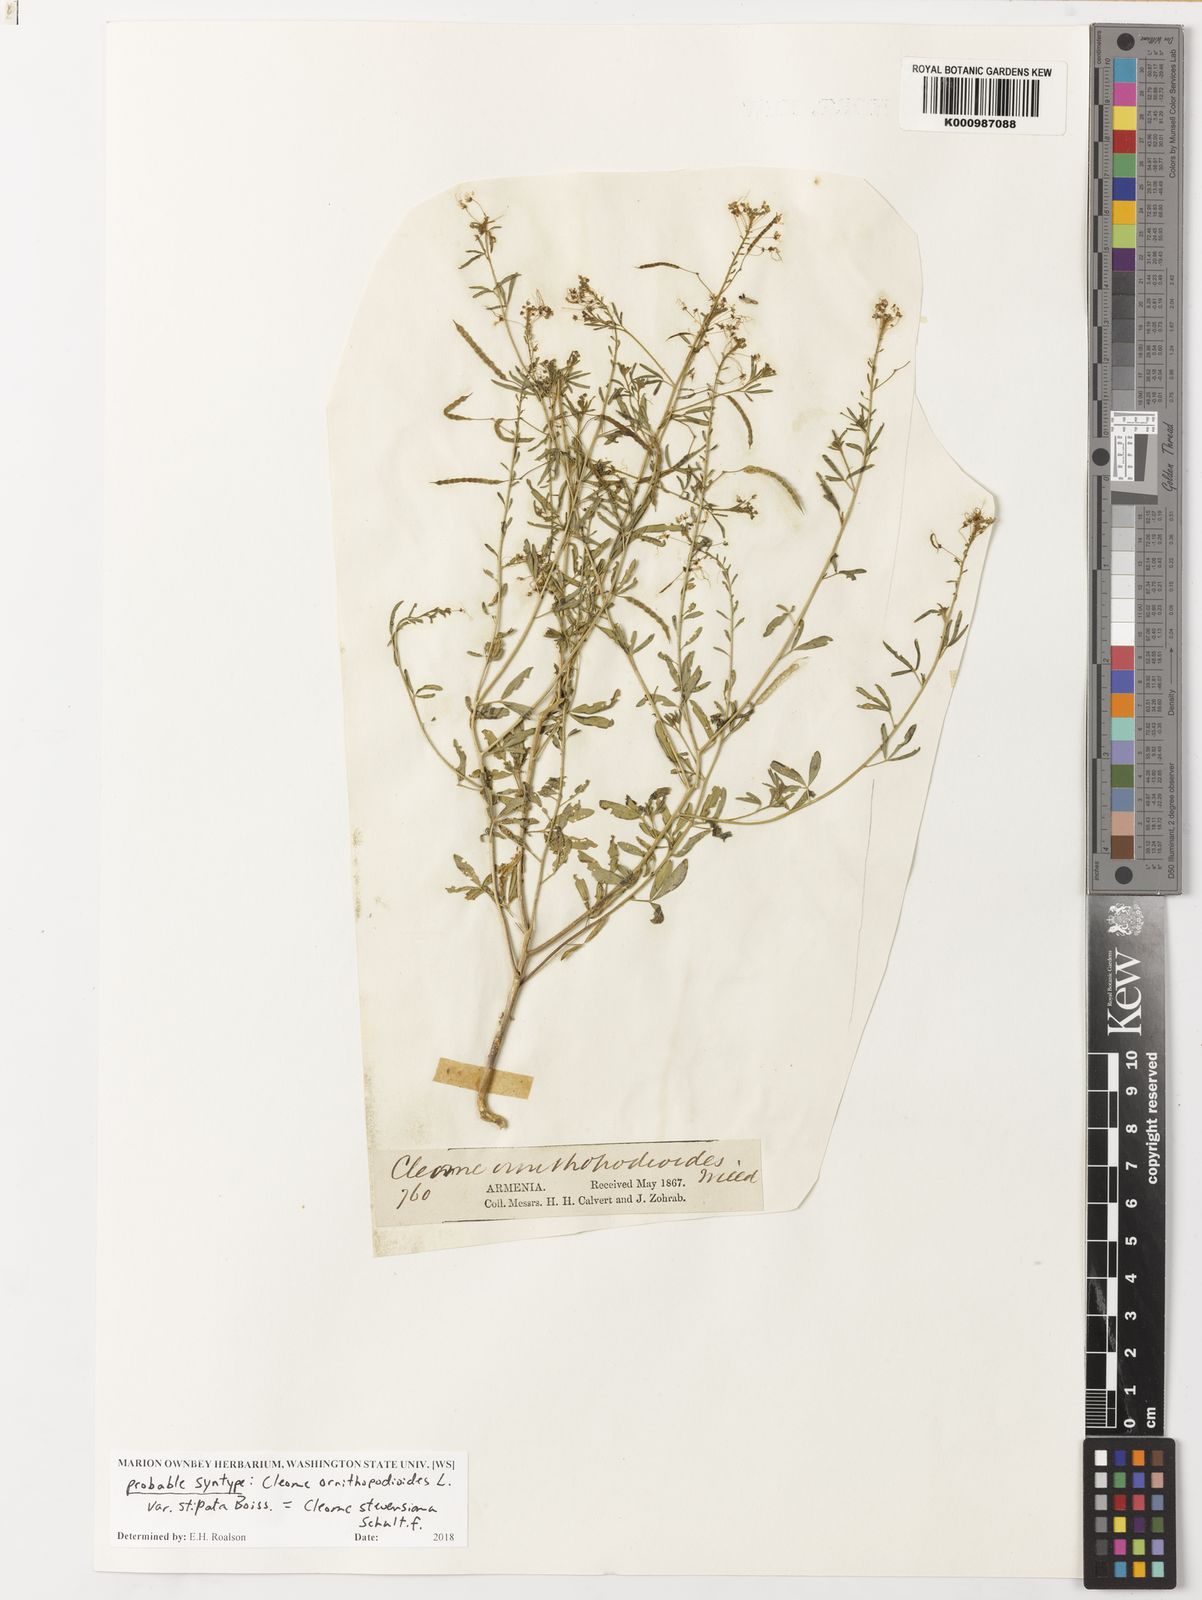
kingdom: Plantae
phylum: Tracheophyta
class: Magnoliopsida
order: Brassicales
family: Cleomaceae
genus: Cleome
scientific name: Cleome steveniana
